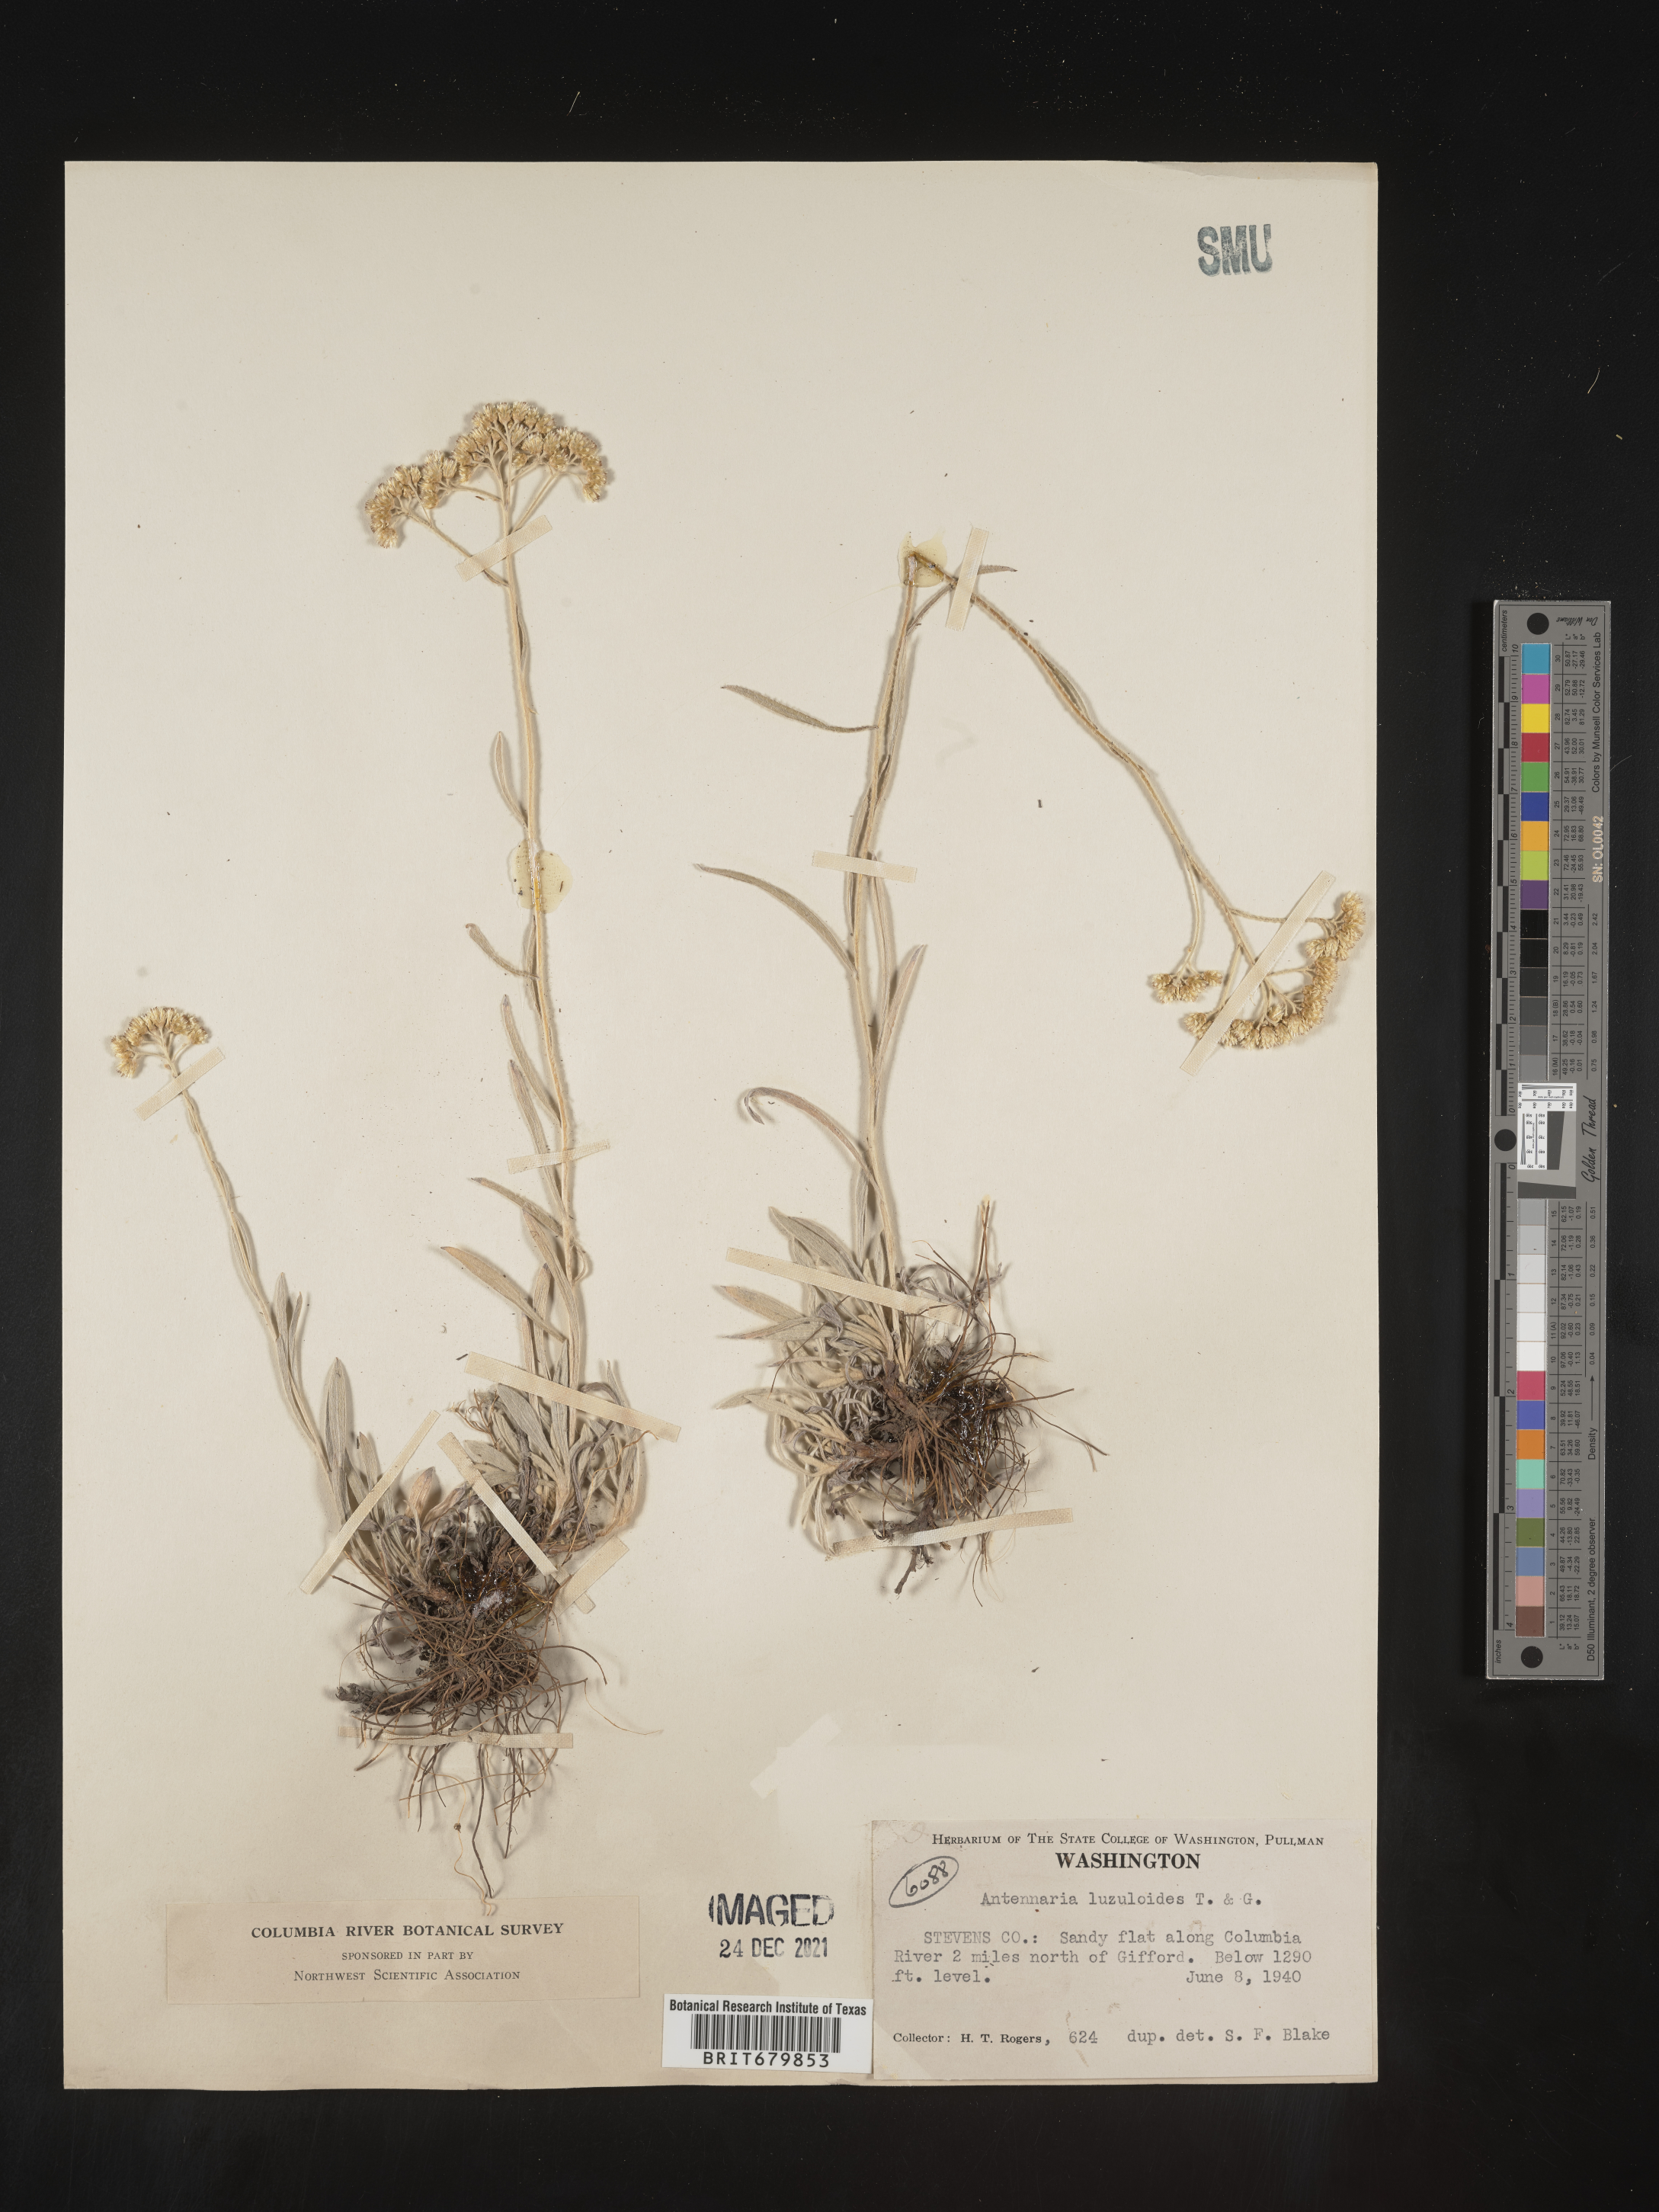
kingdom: Plantae
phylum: Tracheophyta
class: Magnoliopsida
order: Asterales
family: Asteraceae
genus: Antennaria
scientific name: Antennaria luzuloides
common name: Rush pussytoes
